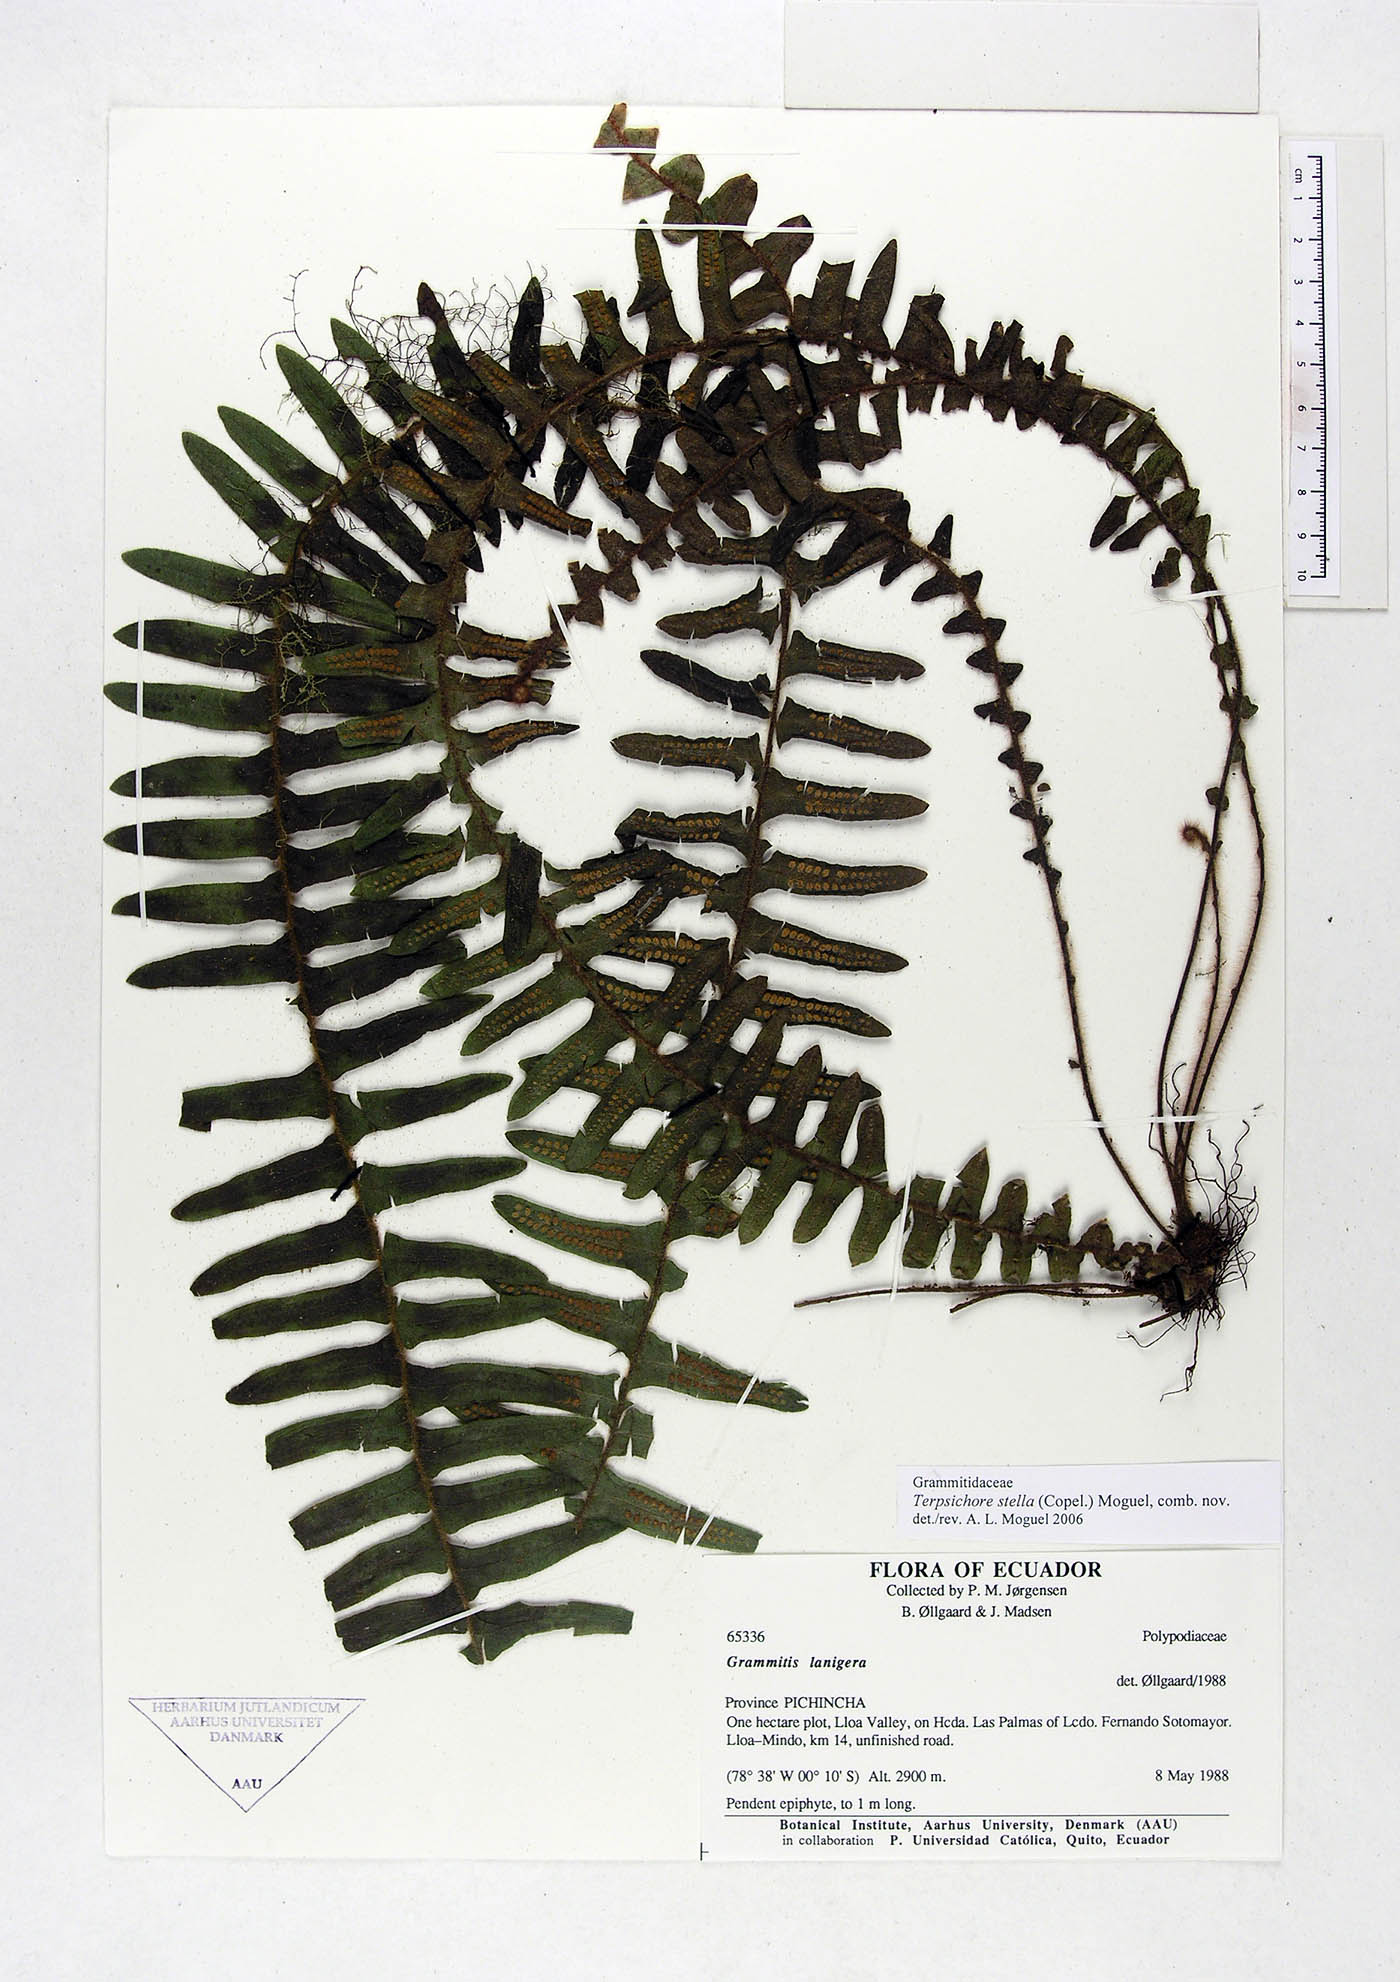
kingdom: Plantae
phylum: Tracheophyta
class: Polypodiopsida
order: Polypodiales
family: Polypodiaceae
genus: Alansmia
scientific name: Alansmia stella
